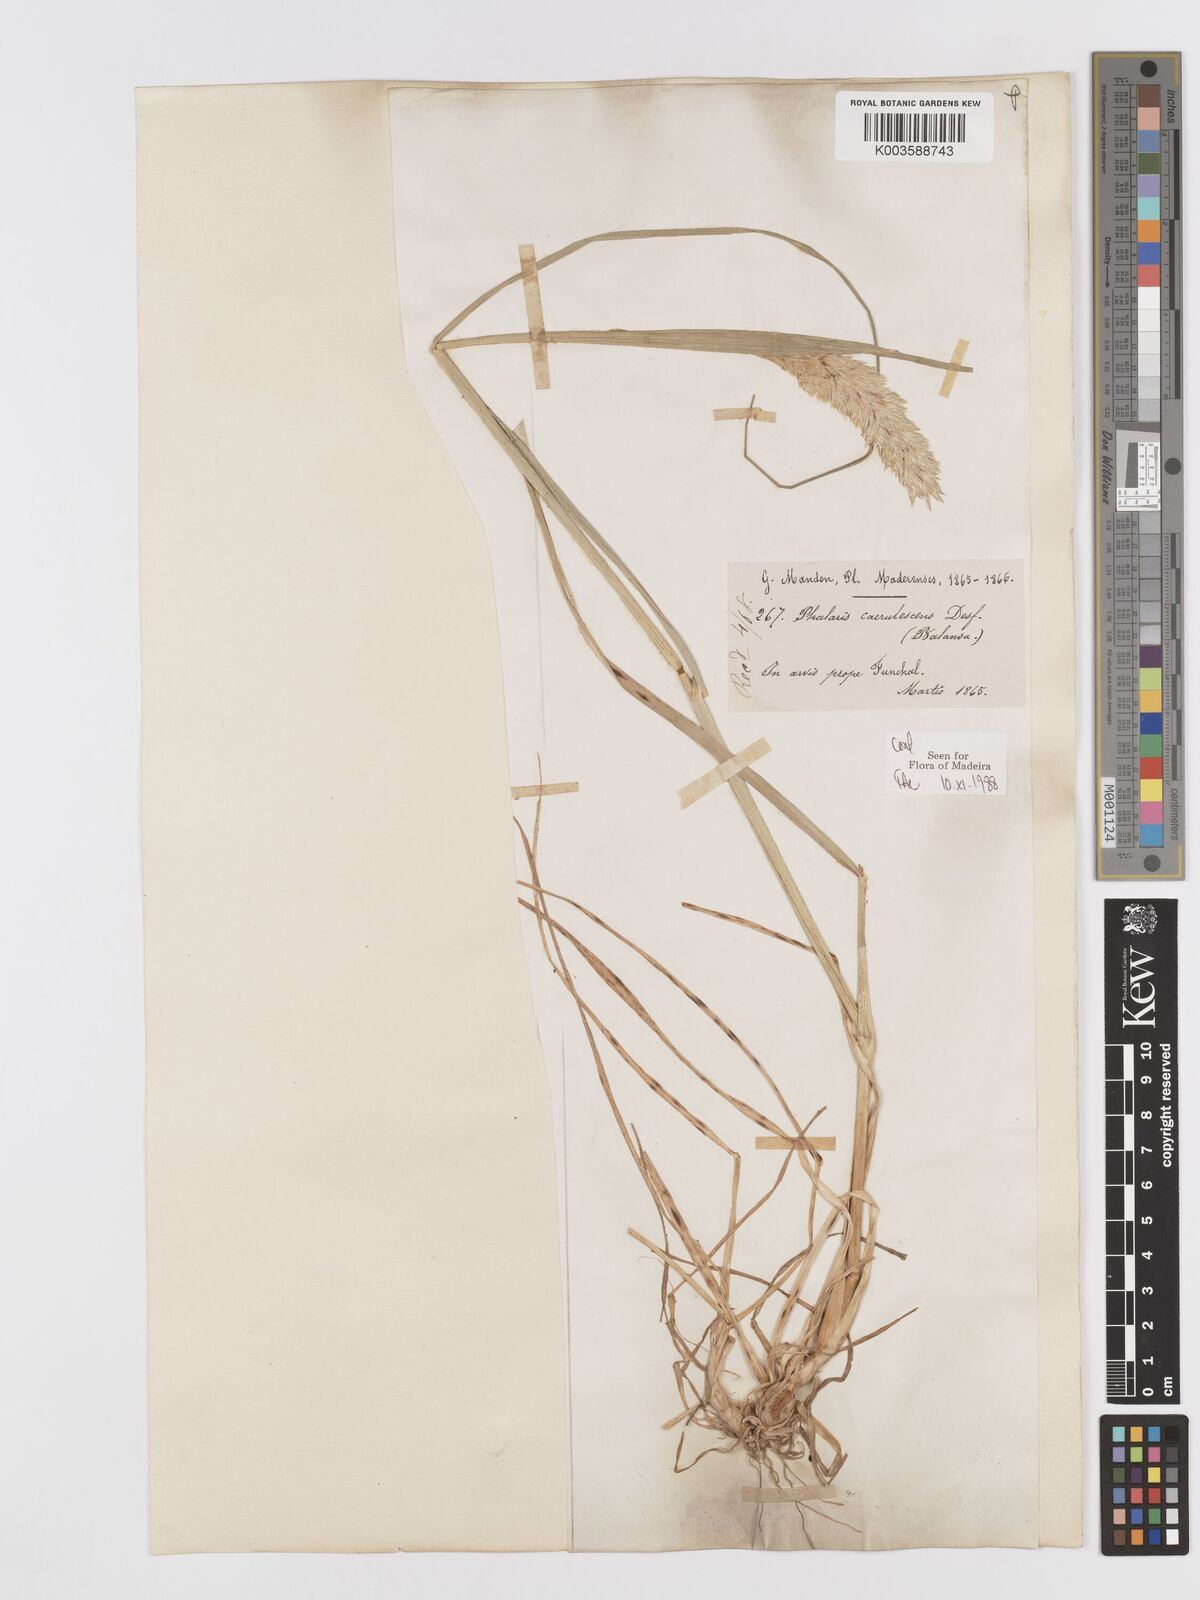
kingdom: Plantae
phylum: Tracheophyta
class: Liliopsida
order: Poales
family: Poaceae
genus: Phalaris
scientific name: Phalaris coerulescens
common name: Sunolgrass
